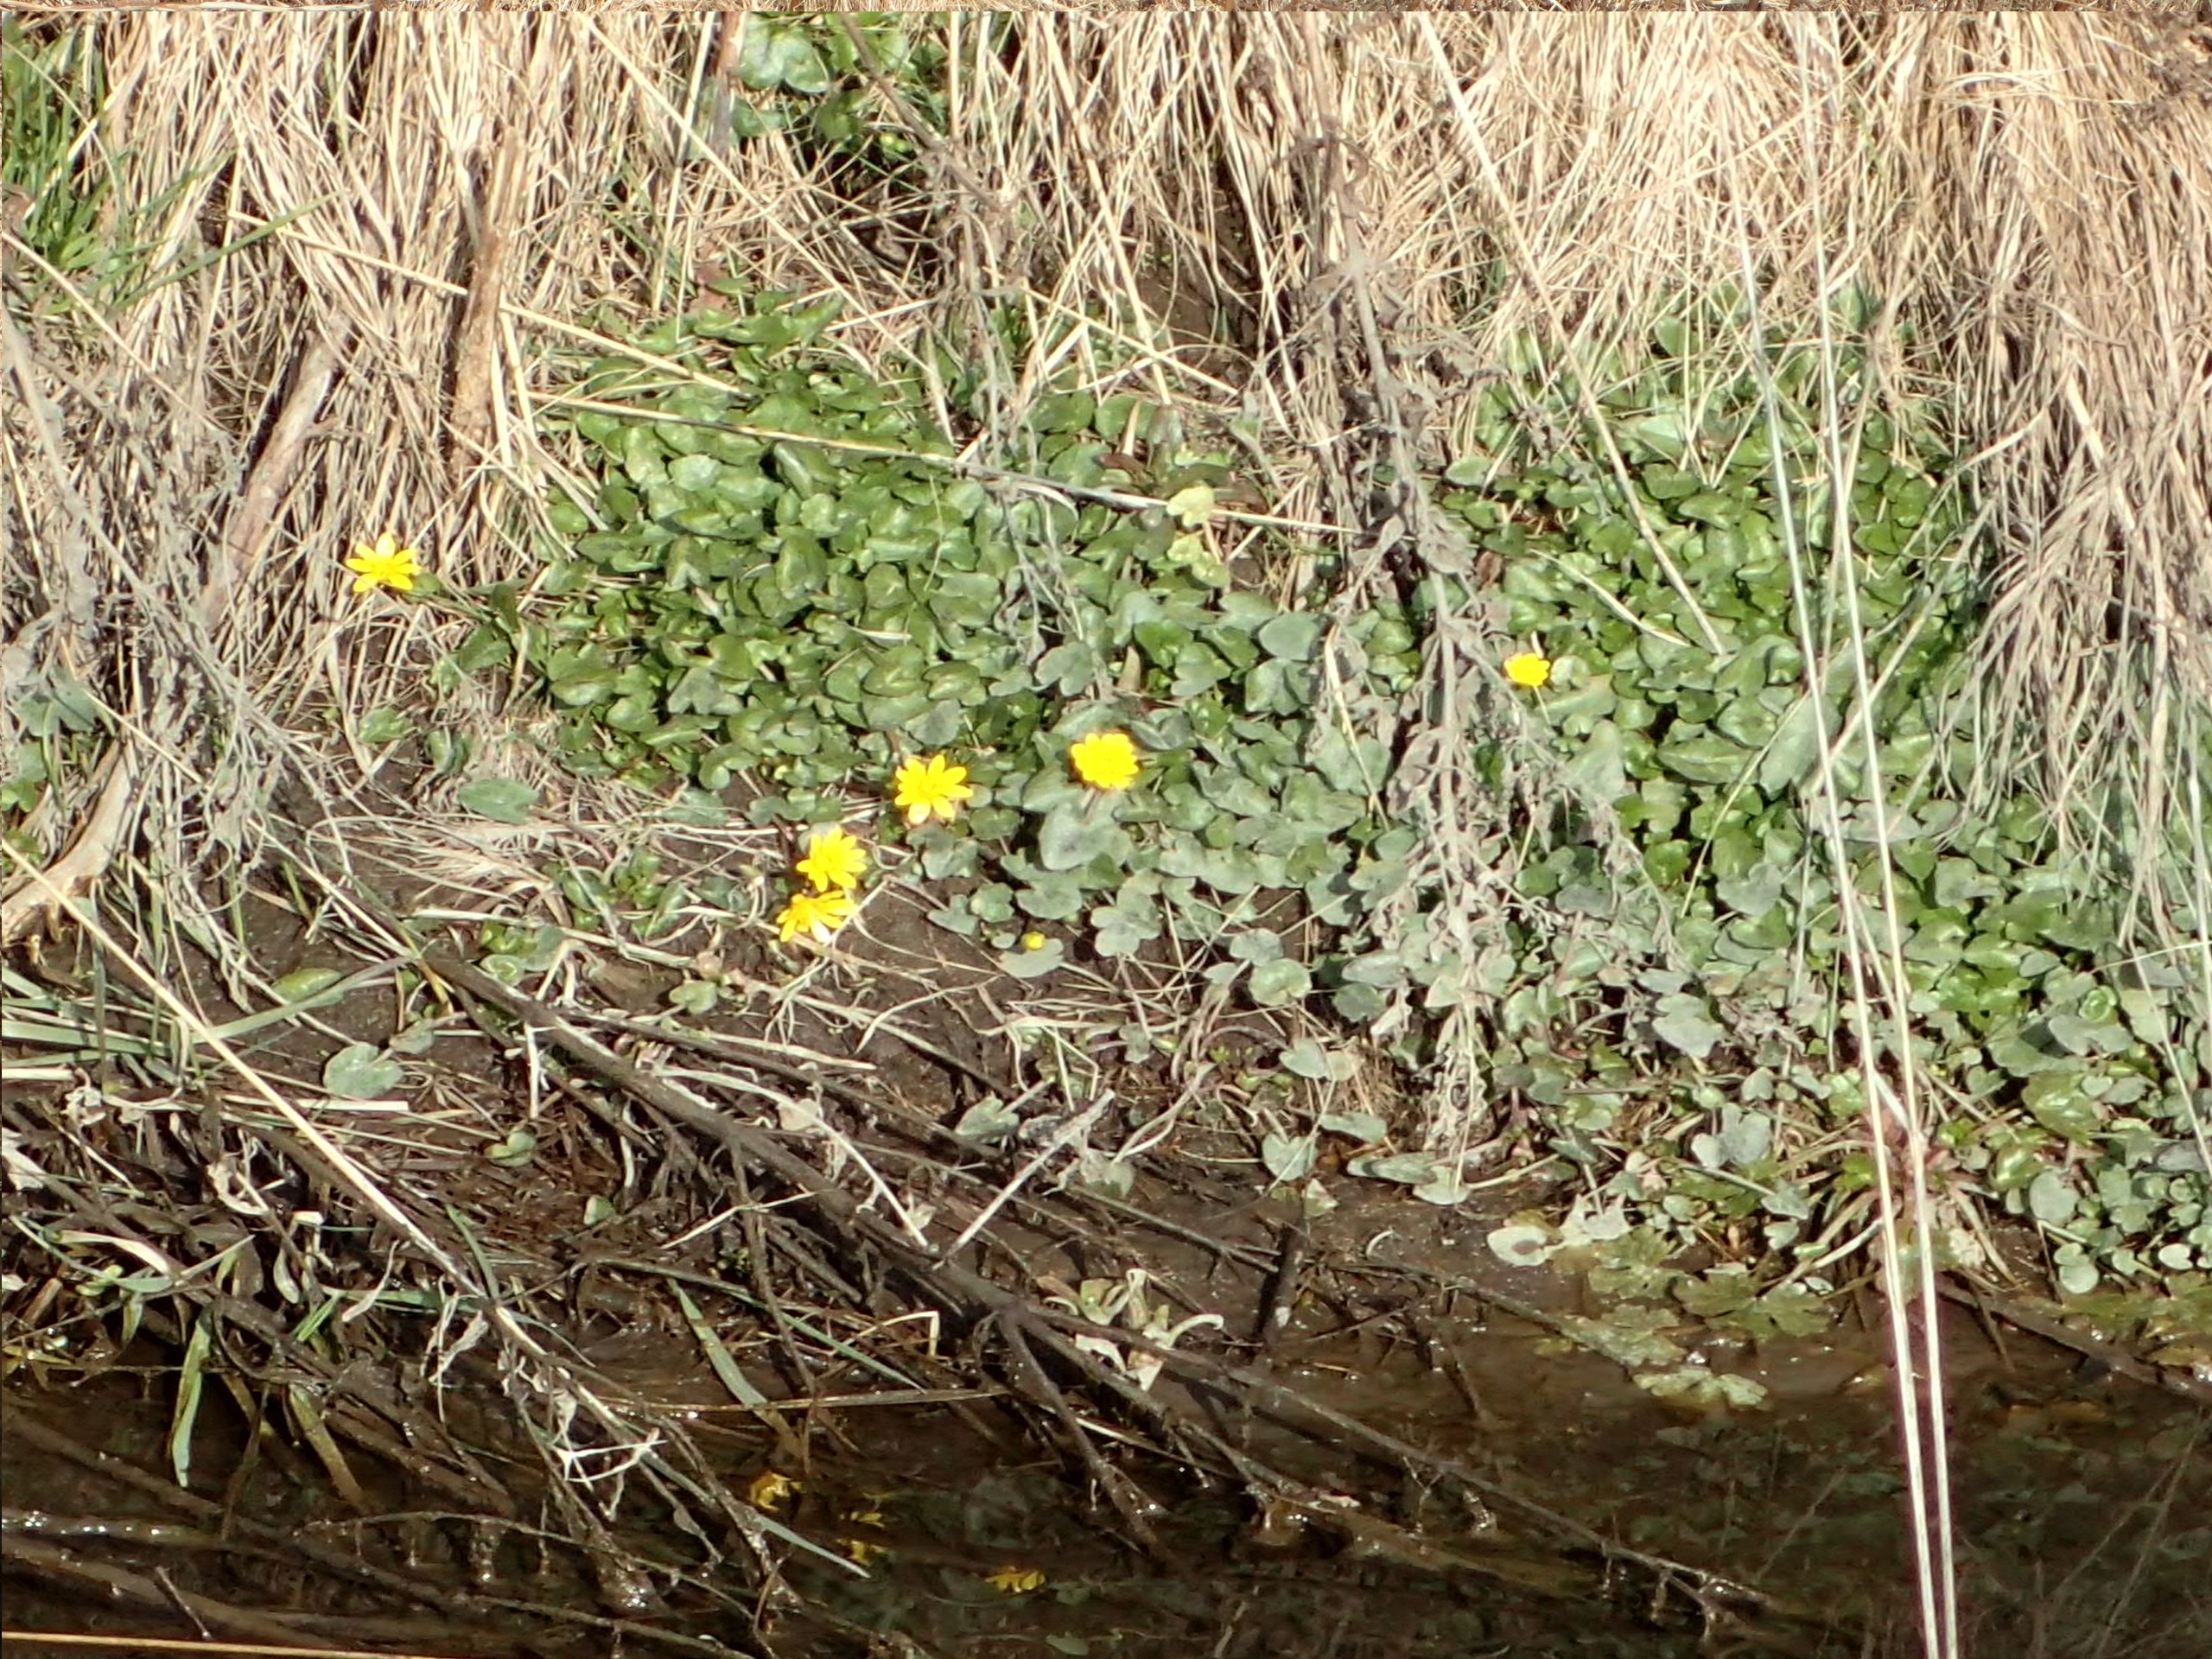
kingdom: Plantae
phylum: Tracheophyta
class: Magnoliopsida
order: Ranunculales
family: Ranunculaceae
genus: Ficaria
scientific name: Ficaria verna
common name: Vorterod
